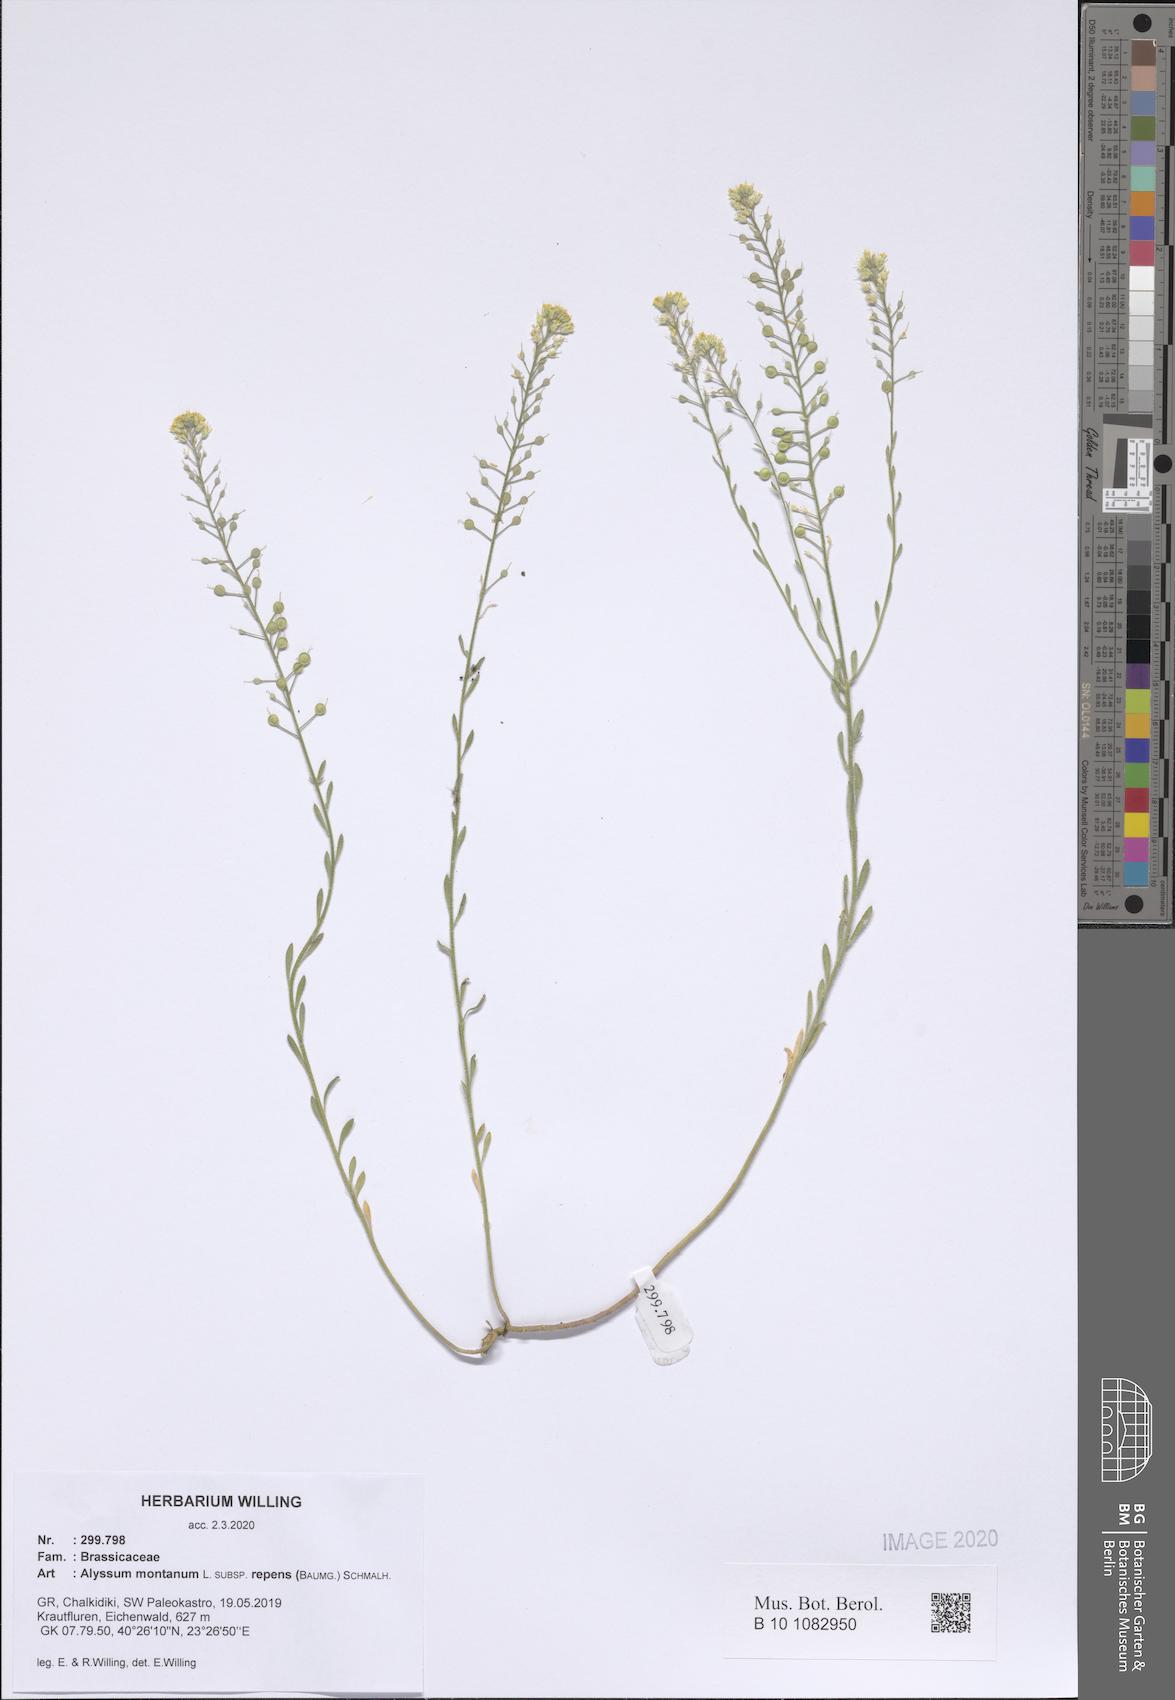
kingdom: Plantae
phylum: Tracheophyta
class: Magnoliopsida
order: Brassicales
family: Brassicaceae
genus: Alyssum
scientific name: Alyssum trichostachyum
